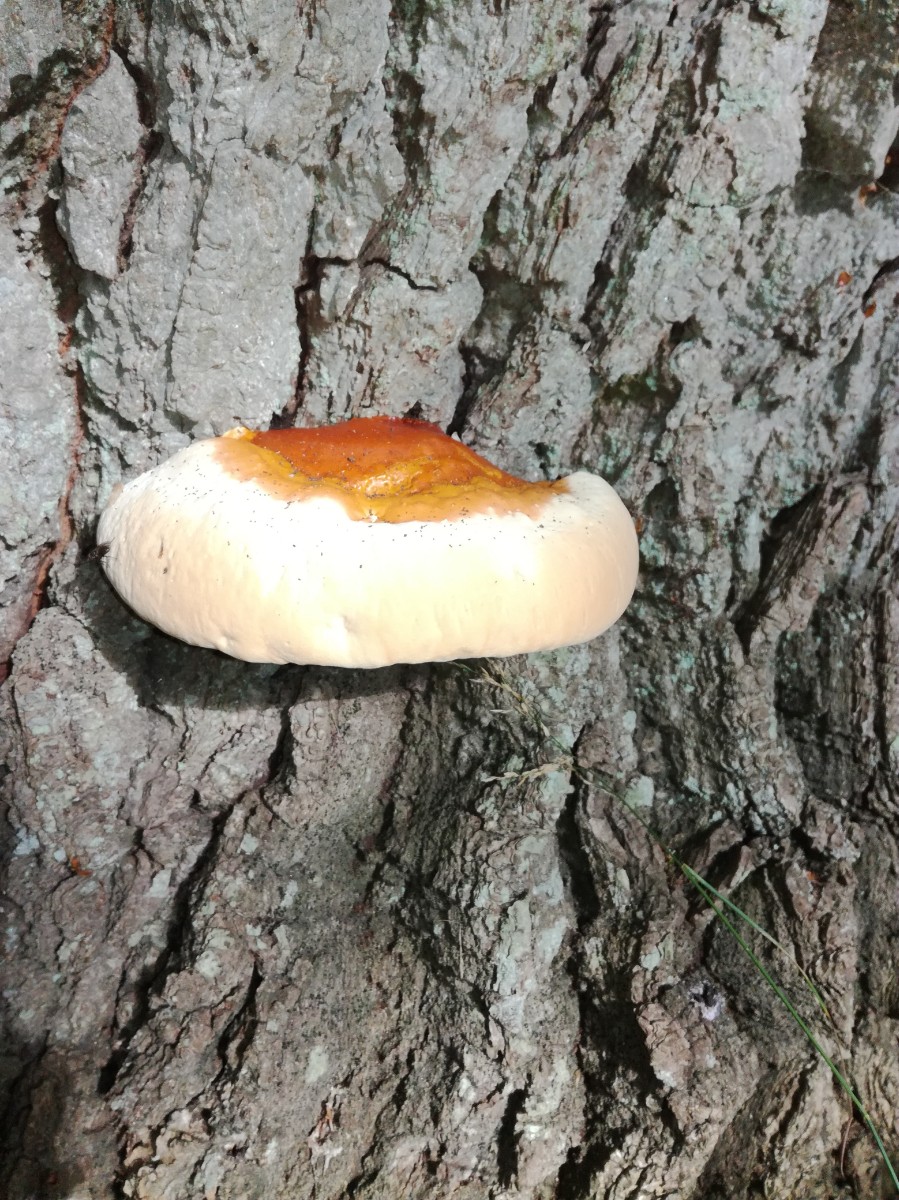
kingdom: Fungi
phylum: Basidiomycota
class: Agaricomycetes
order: Polyporales
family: Polyporaceae
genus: Ganoderma
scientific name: Ganoderma resinaceum
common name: gyldenbrun lakporesvamp
